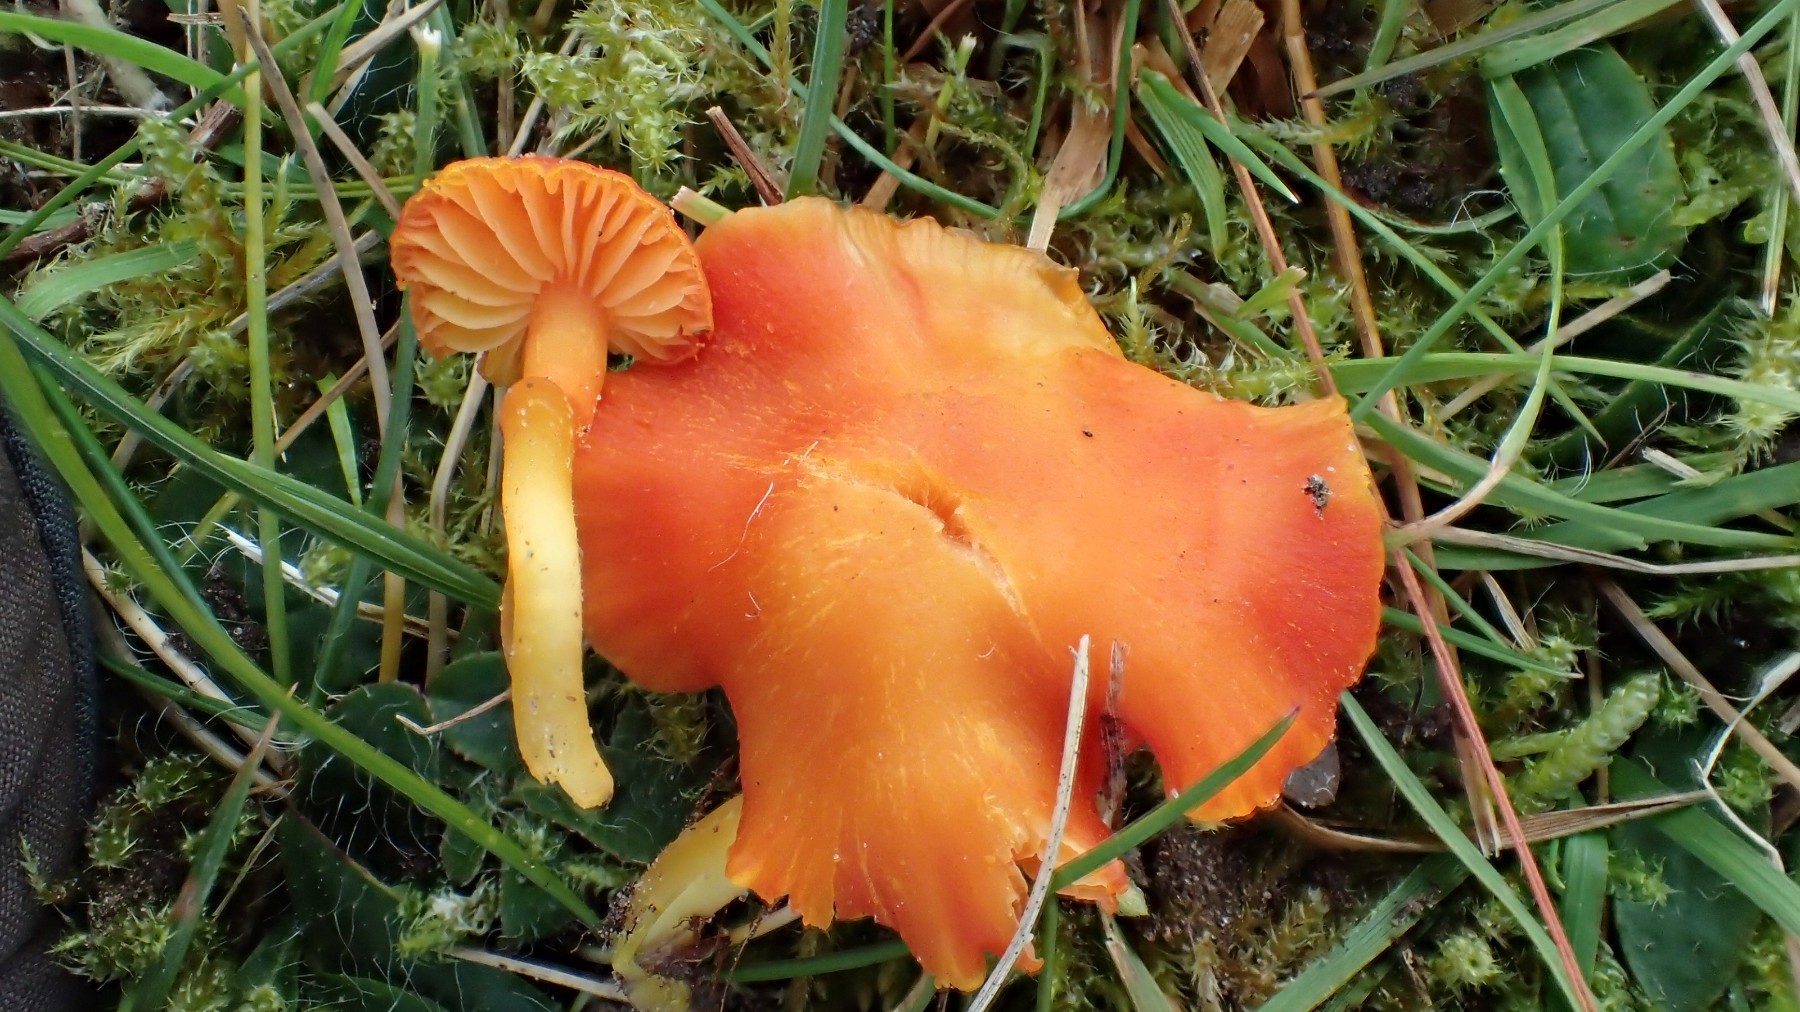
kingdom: Fungi
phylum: Basidiomycota
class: Agaricomycetes
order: Agaricales
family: Hygrophoraceae
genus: Hygrocybe
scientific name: Hygrocybe miniata
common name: mønje-vokshat
